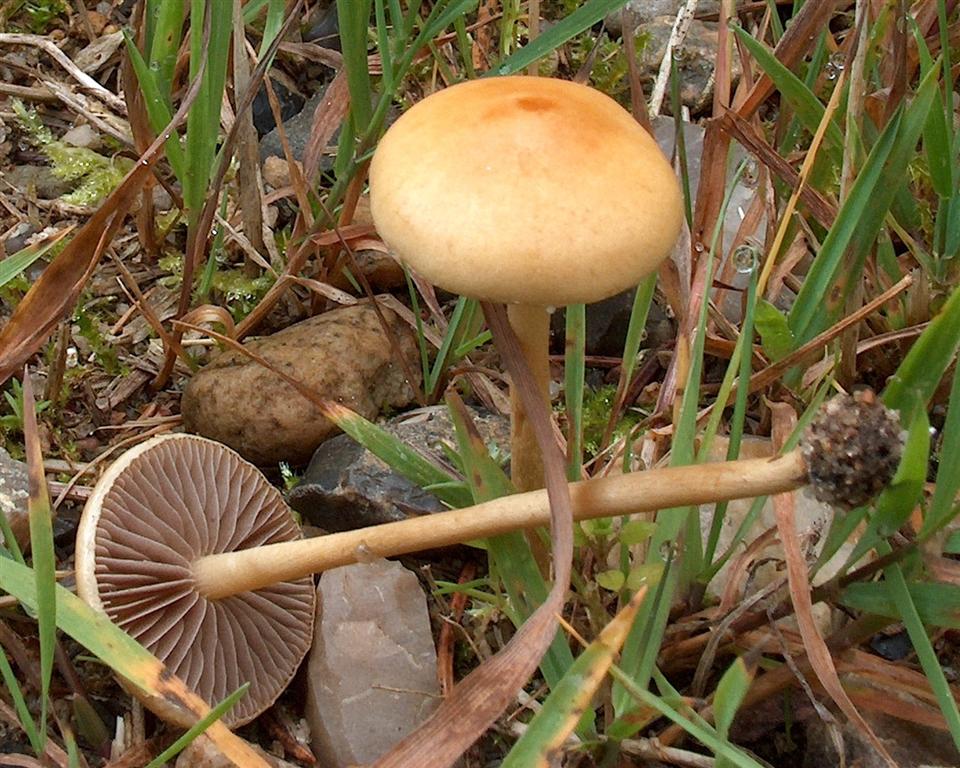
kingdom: Fungi
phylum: Basidiomycota
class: Agaricomycetes
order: Agaricales
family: Strophariaceae
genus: Agrocybe
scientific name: Agrocybe pediades
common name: almindelig agerhat
